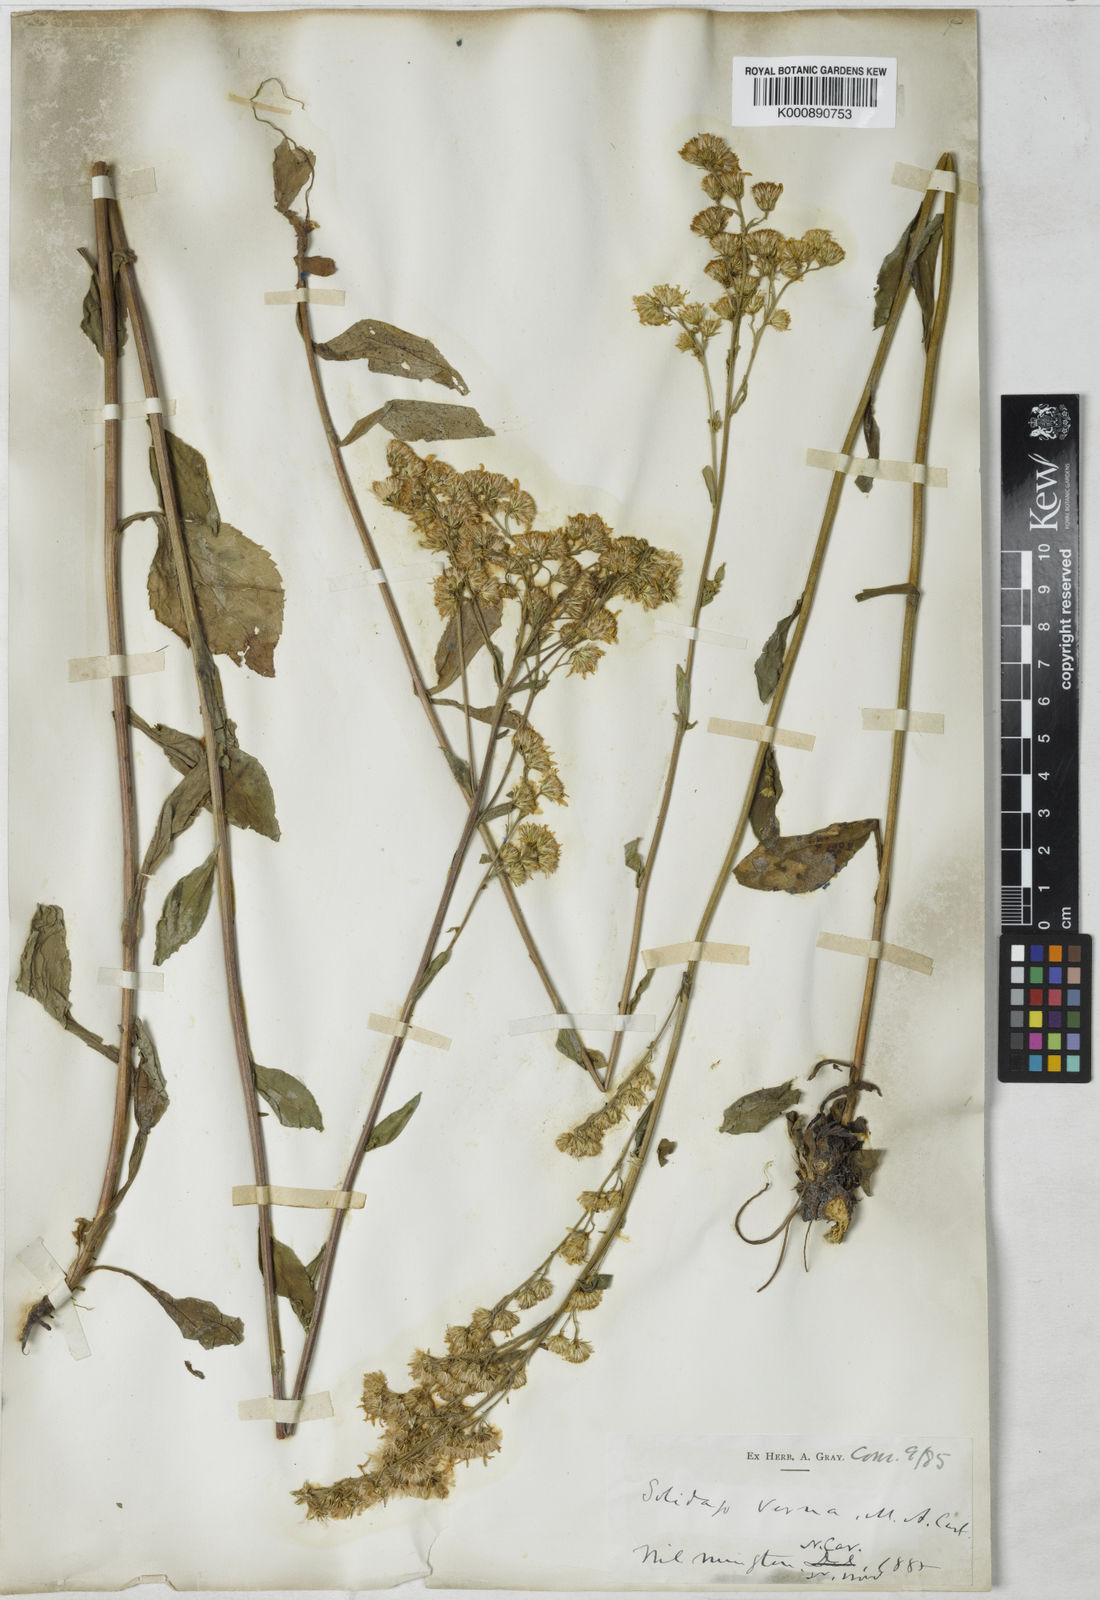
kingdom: Plantae
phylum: Tracheophyta
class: Magnoliopsida
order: Asterales
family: Asteraceae
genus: Solidago
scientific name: Solidago
